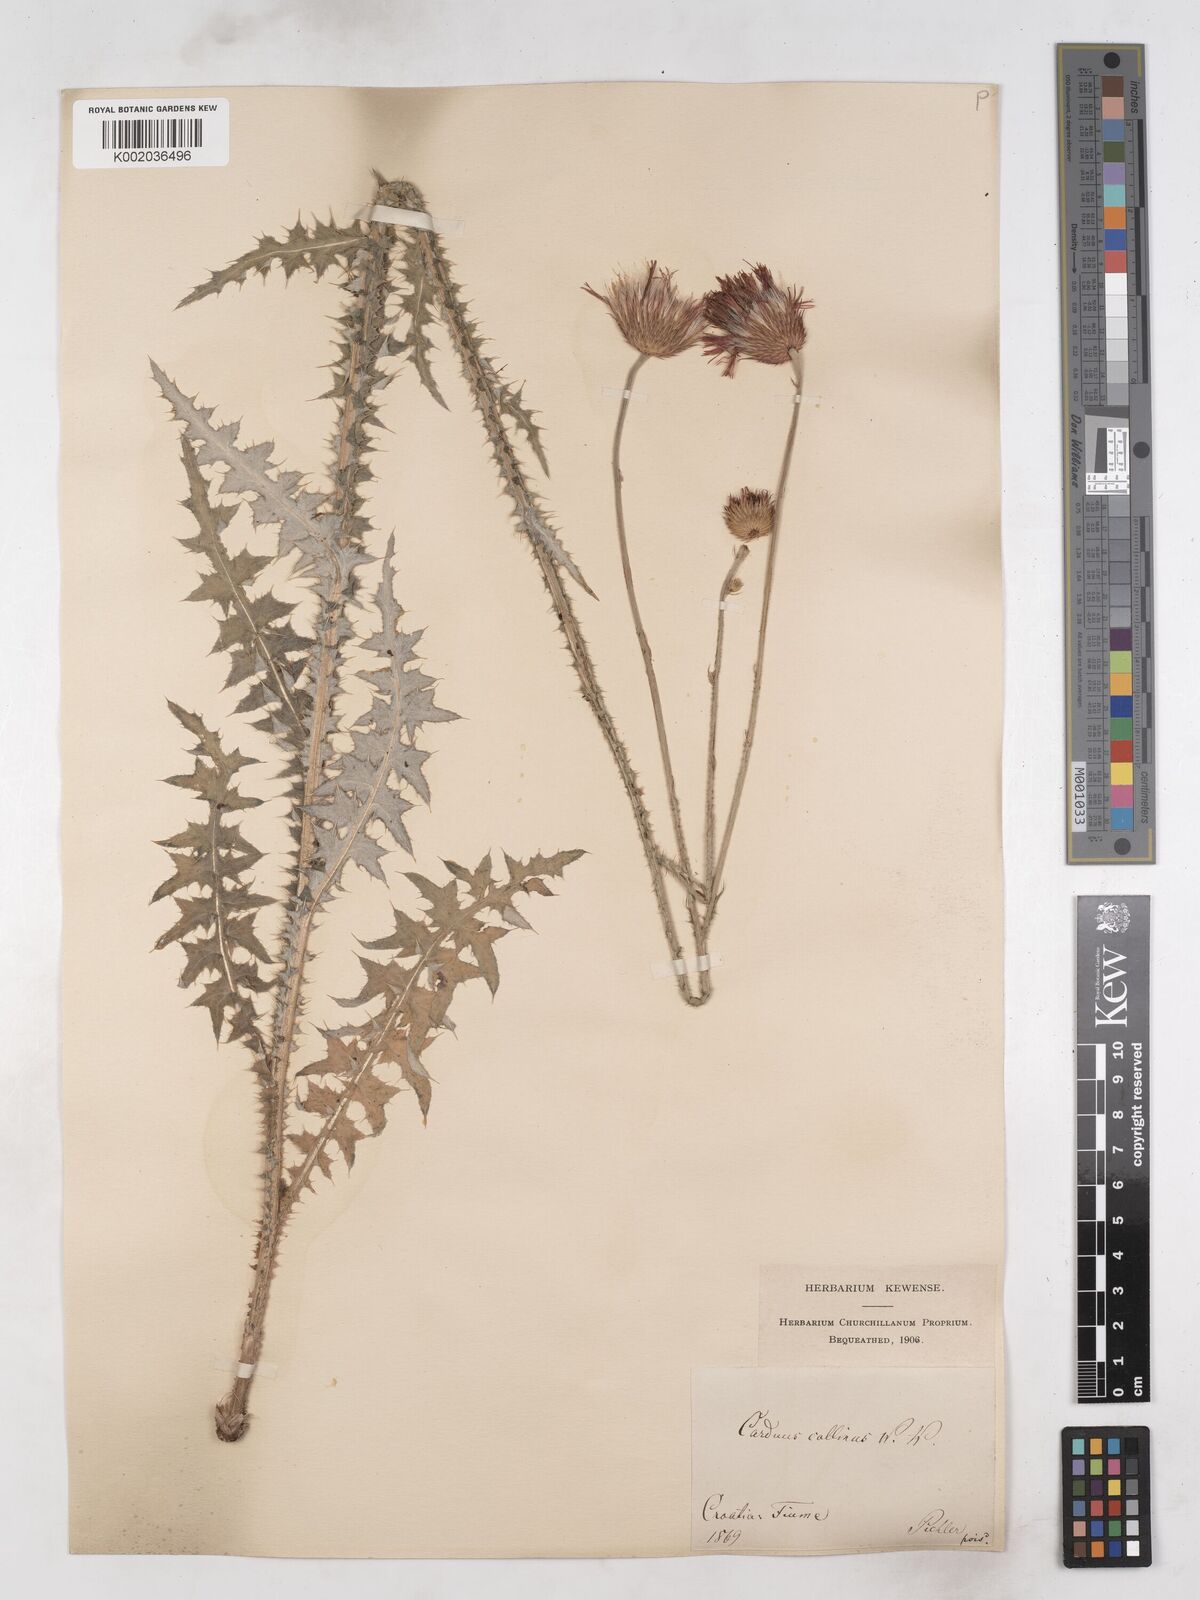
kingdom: Plantae
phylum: Tracheophyta
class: Magnoliopsida
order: Asterales
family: Asteraceae
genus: Carduus
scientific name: Carduus collinus
